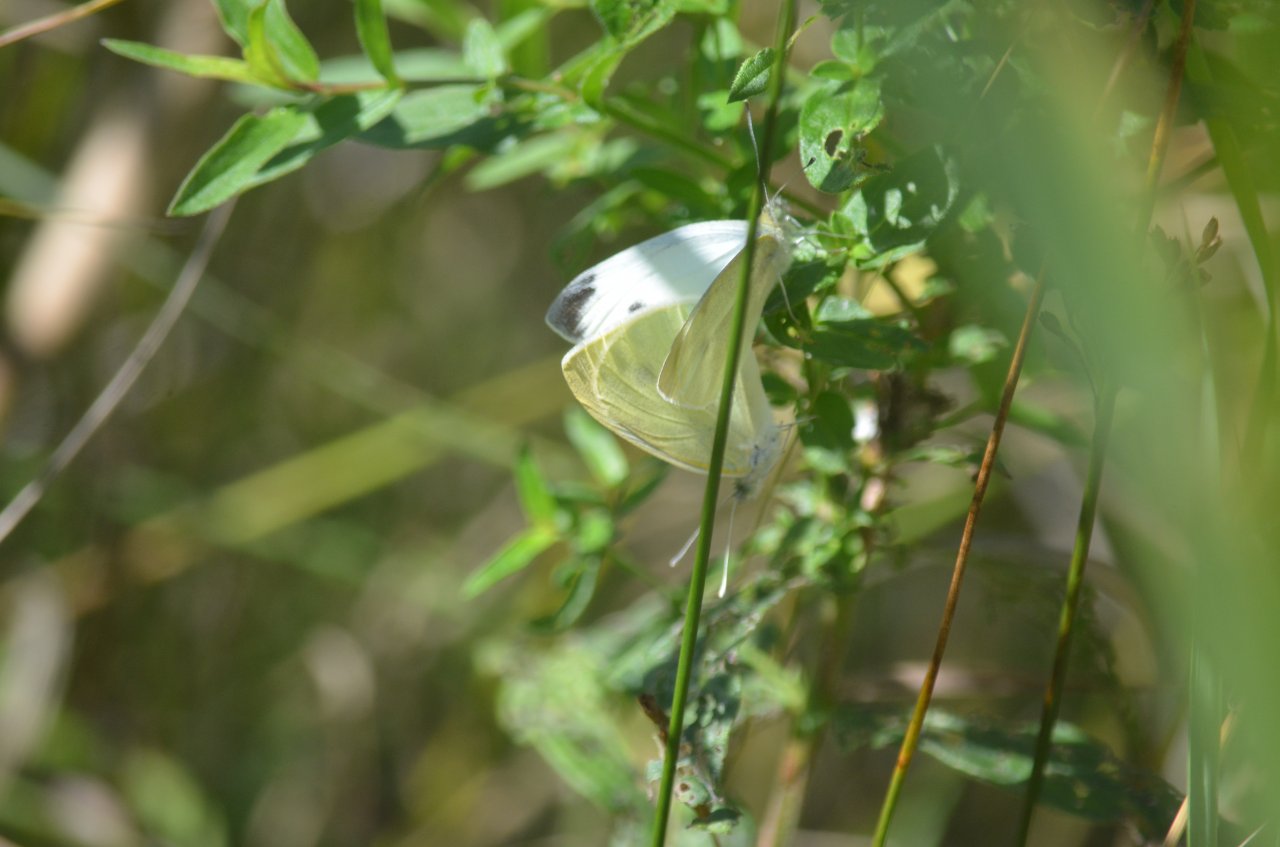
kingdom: Animalia
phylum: Arthropoda
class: Insecta
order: Lepidoptera
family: Pieridae
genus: Pieris
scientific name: Pieris rapae
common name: Cabbage White
